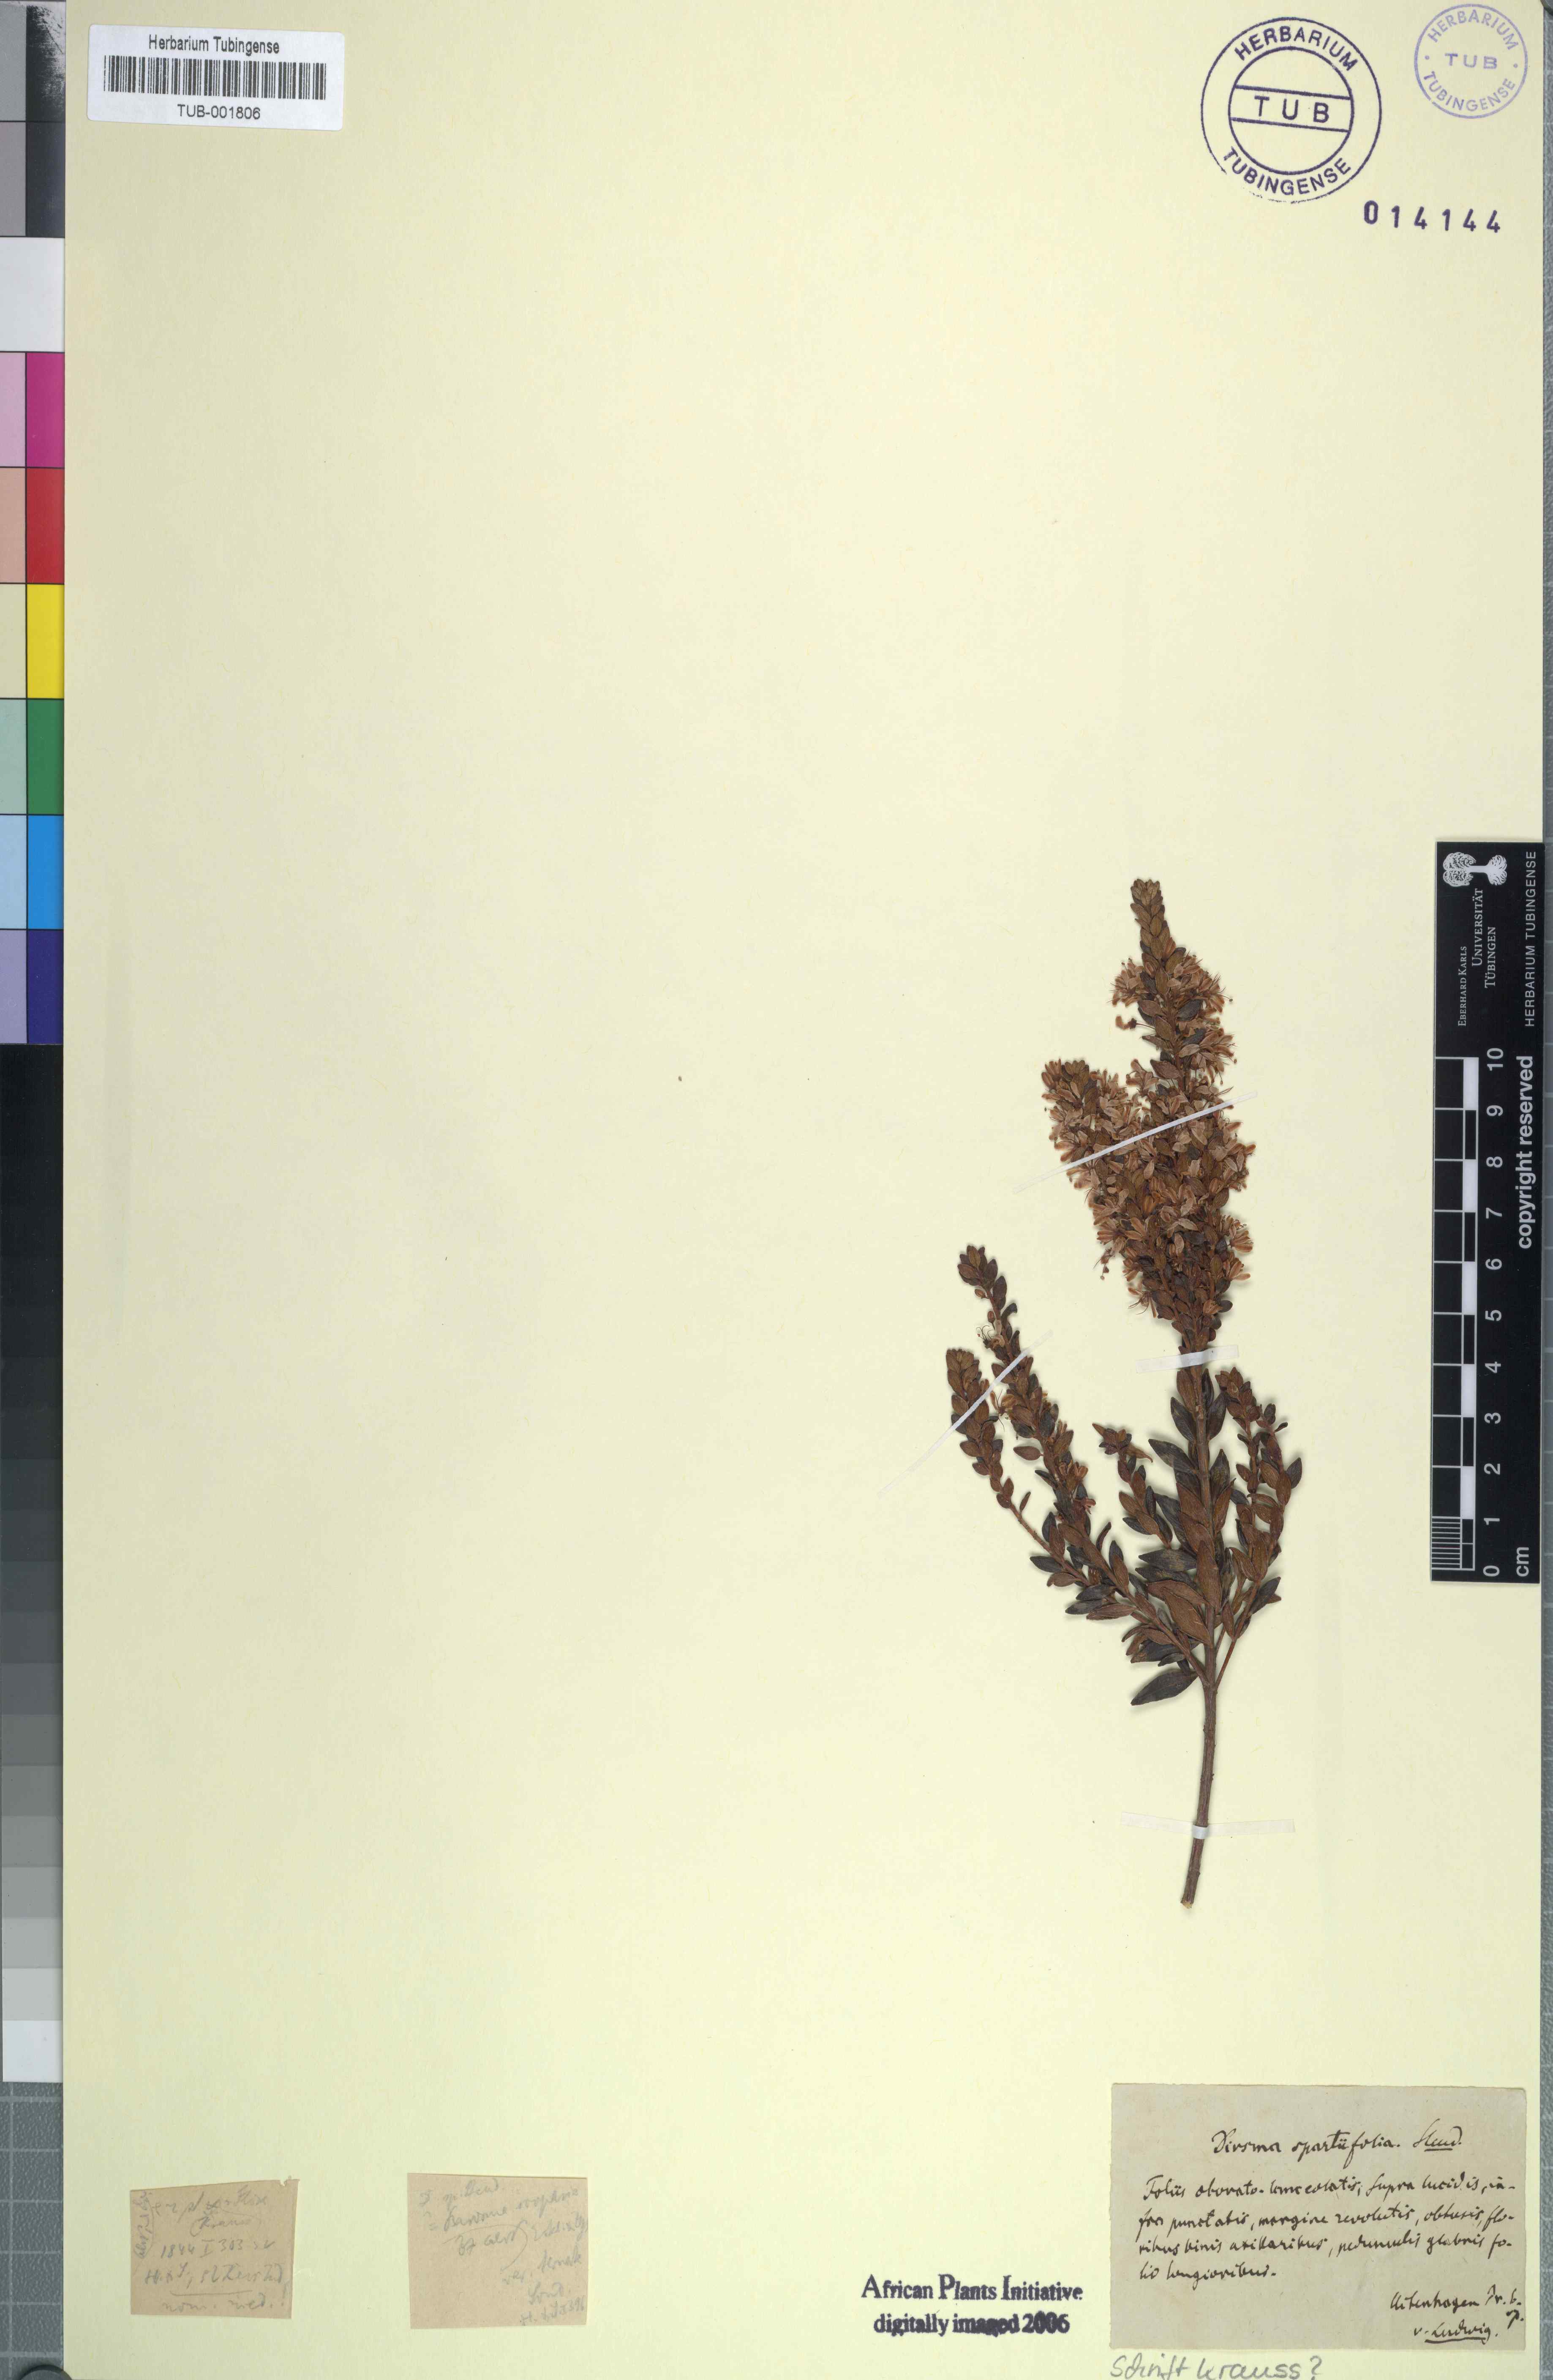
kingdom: Plantae
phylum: Tracheophyta
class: Magnoliopsida
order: Sapindales
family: Rutaceae
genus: Agathosma
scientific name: Agathosma ovata
